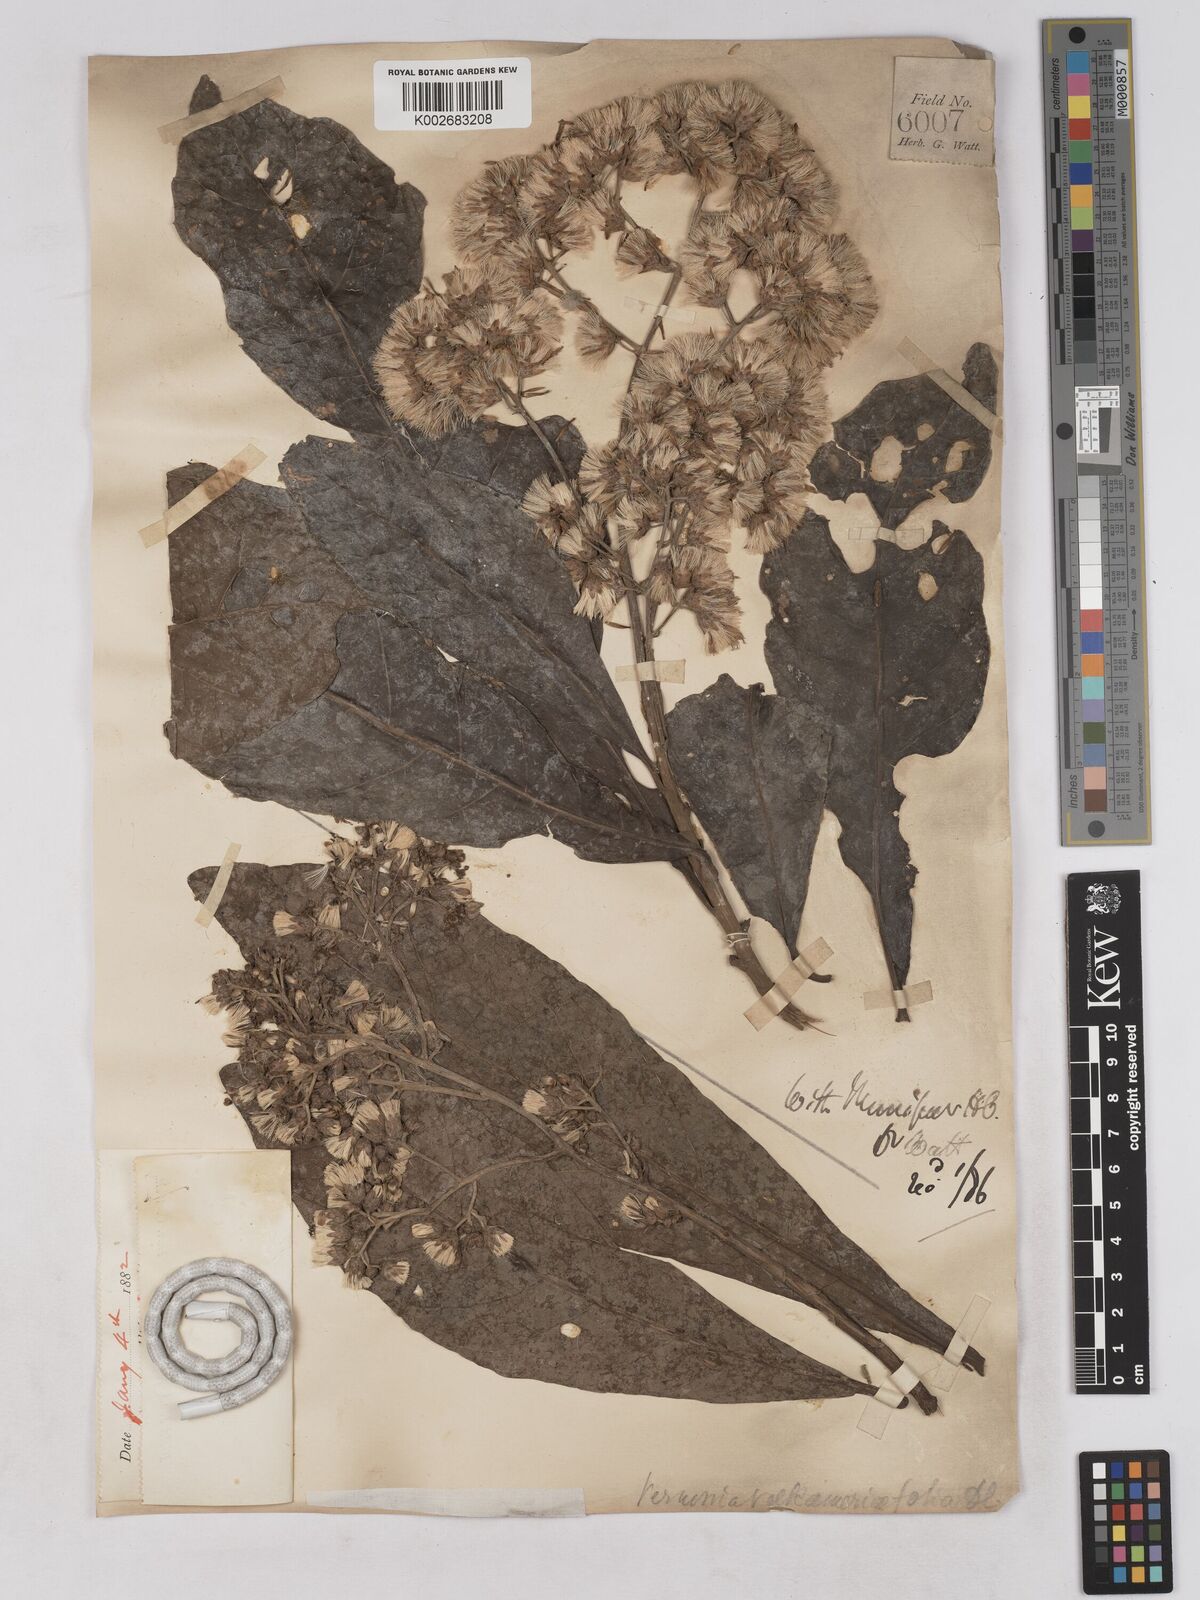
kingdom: Plantae
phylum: Tracheophyta
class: Magnoliopsida
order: Asterales
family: Asteraceae
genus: Monosis
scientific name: Monosis volkameriifolia
